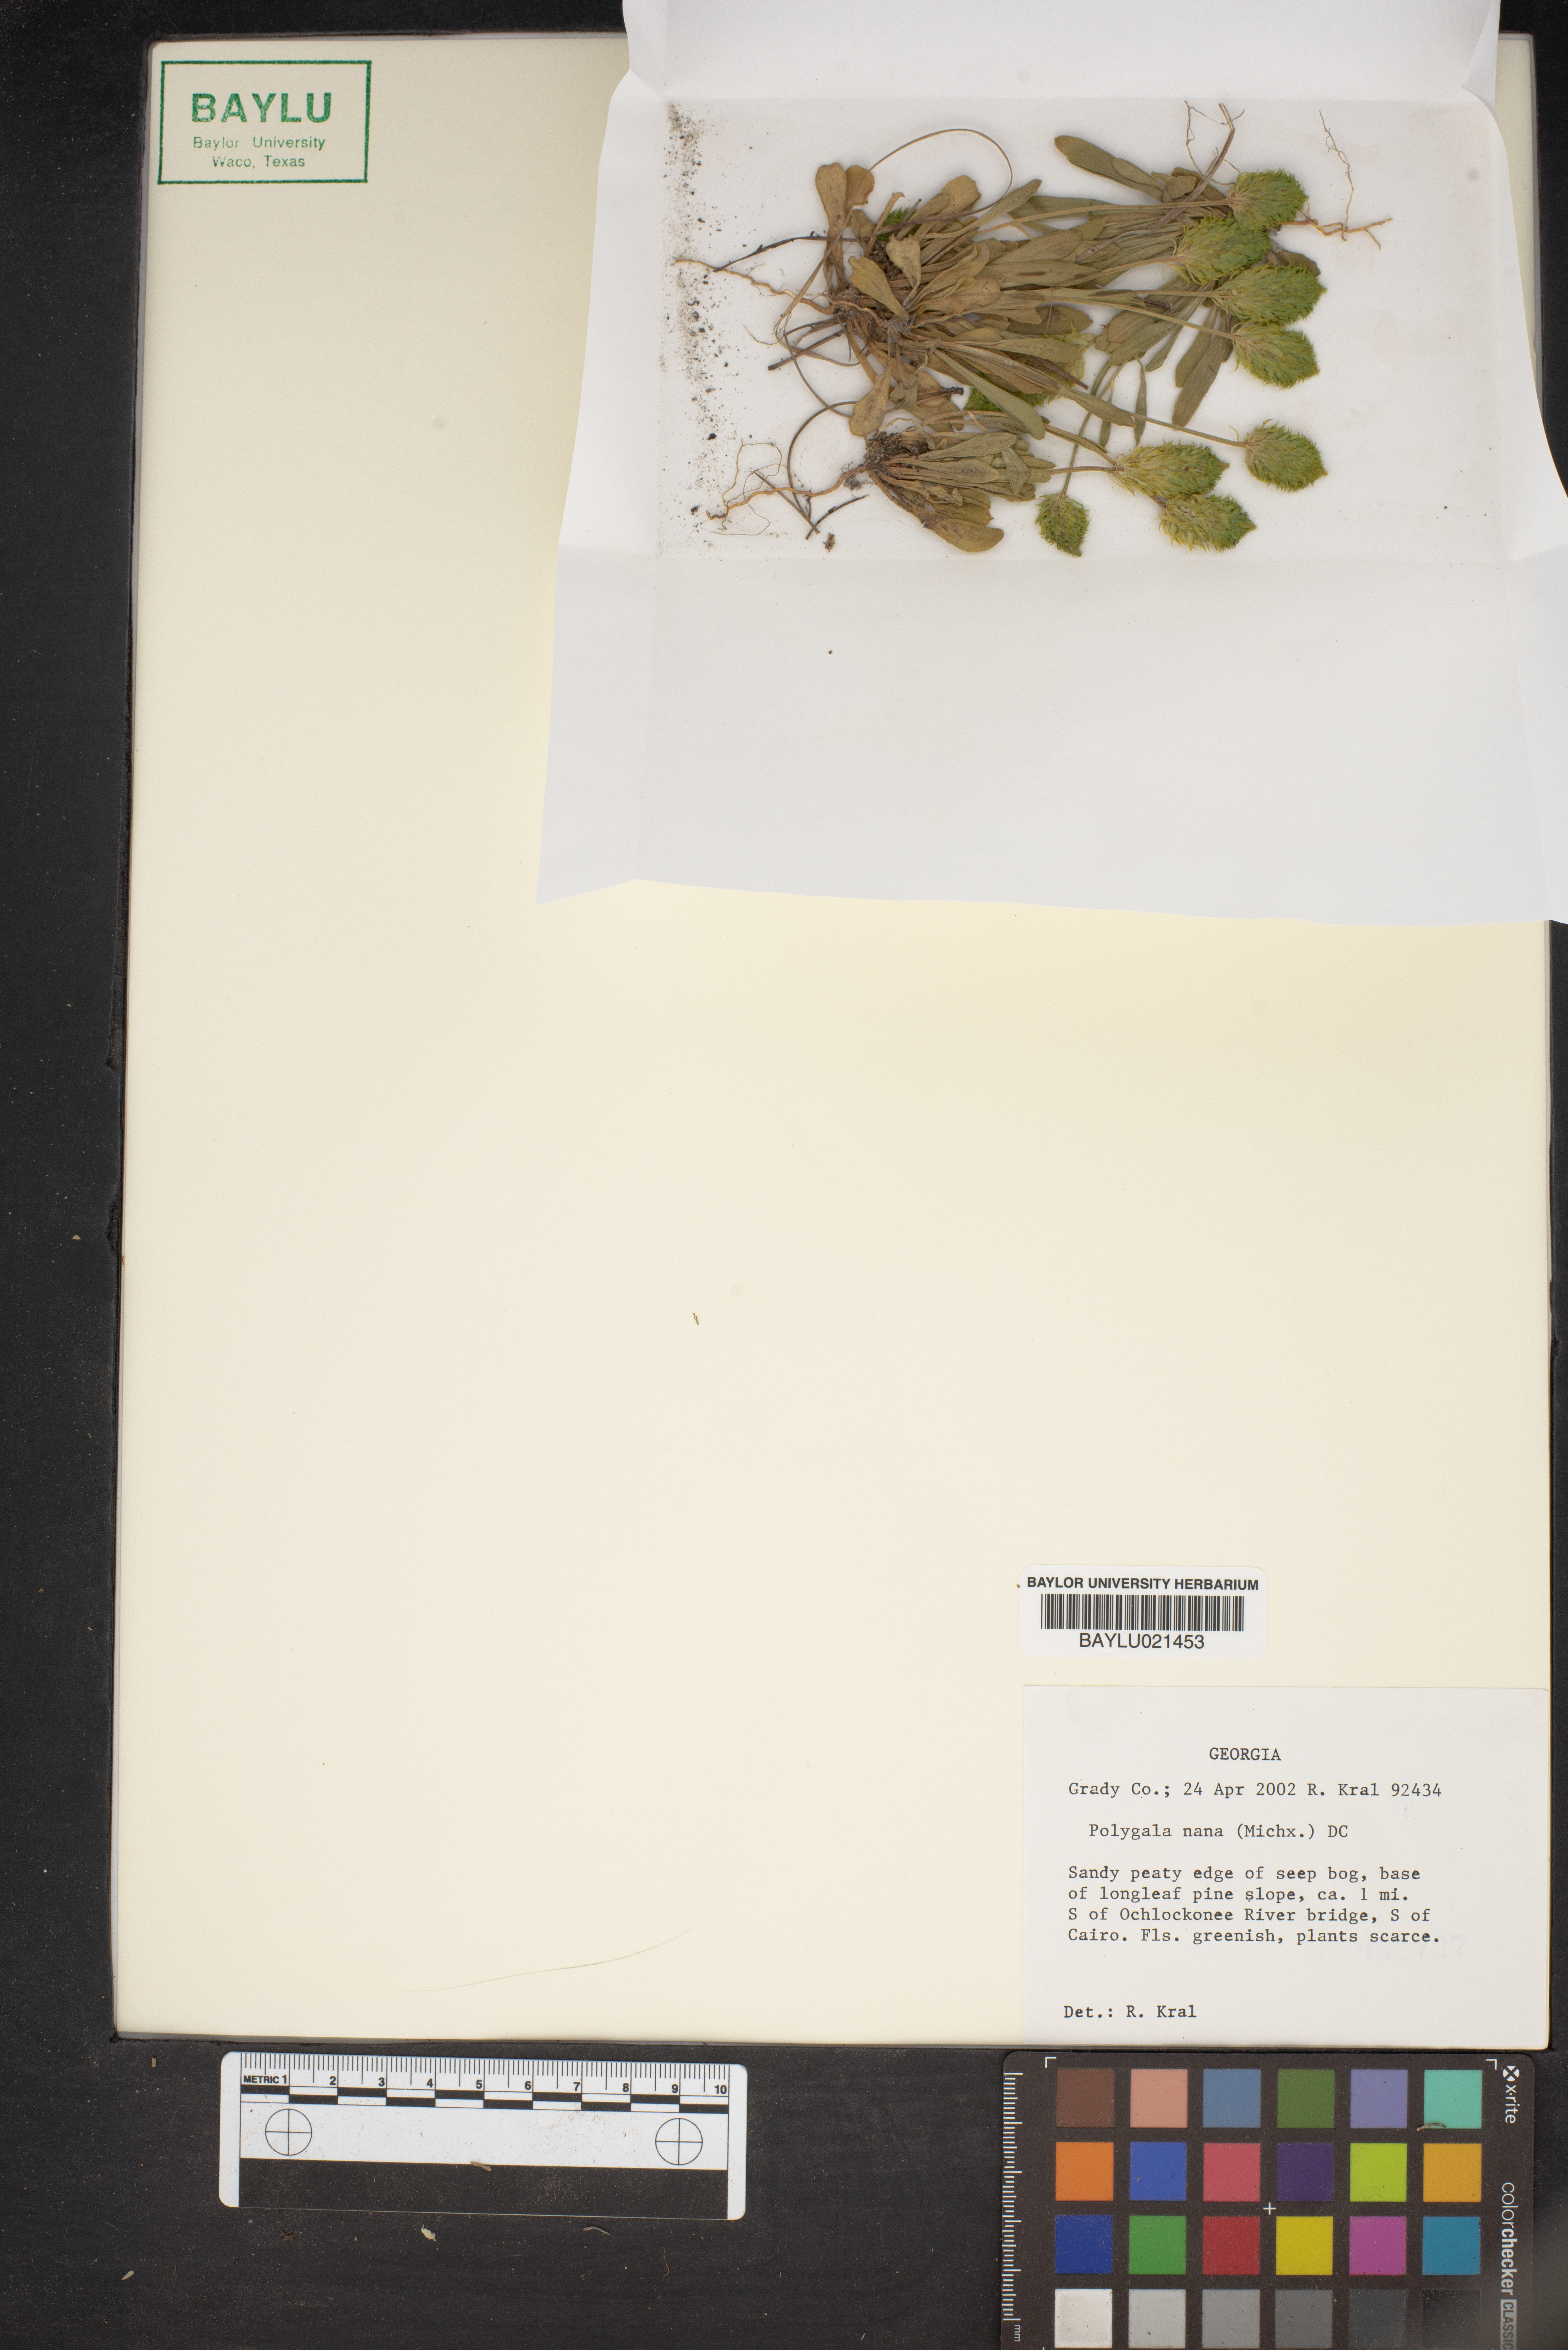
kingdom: Plantae
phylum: Tracheophyta
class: Magnoliopsida
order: Fabales
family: Polygalaceae
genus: Polygala
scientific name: Polygala nana
